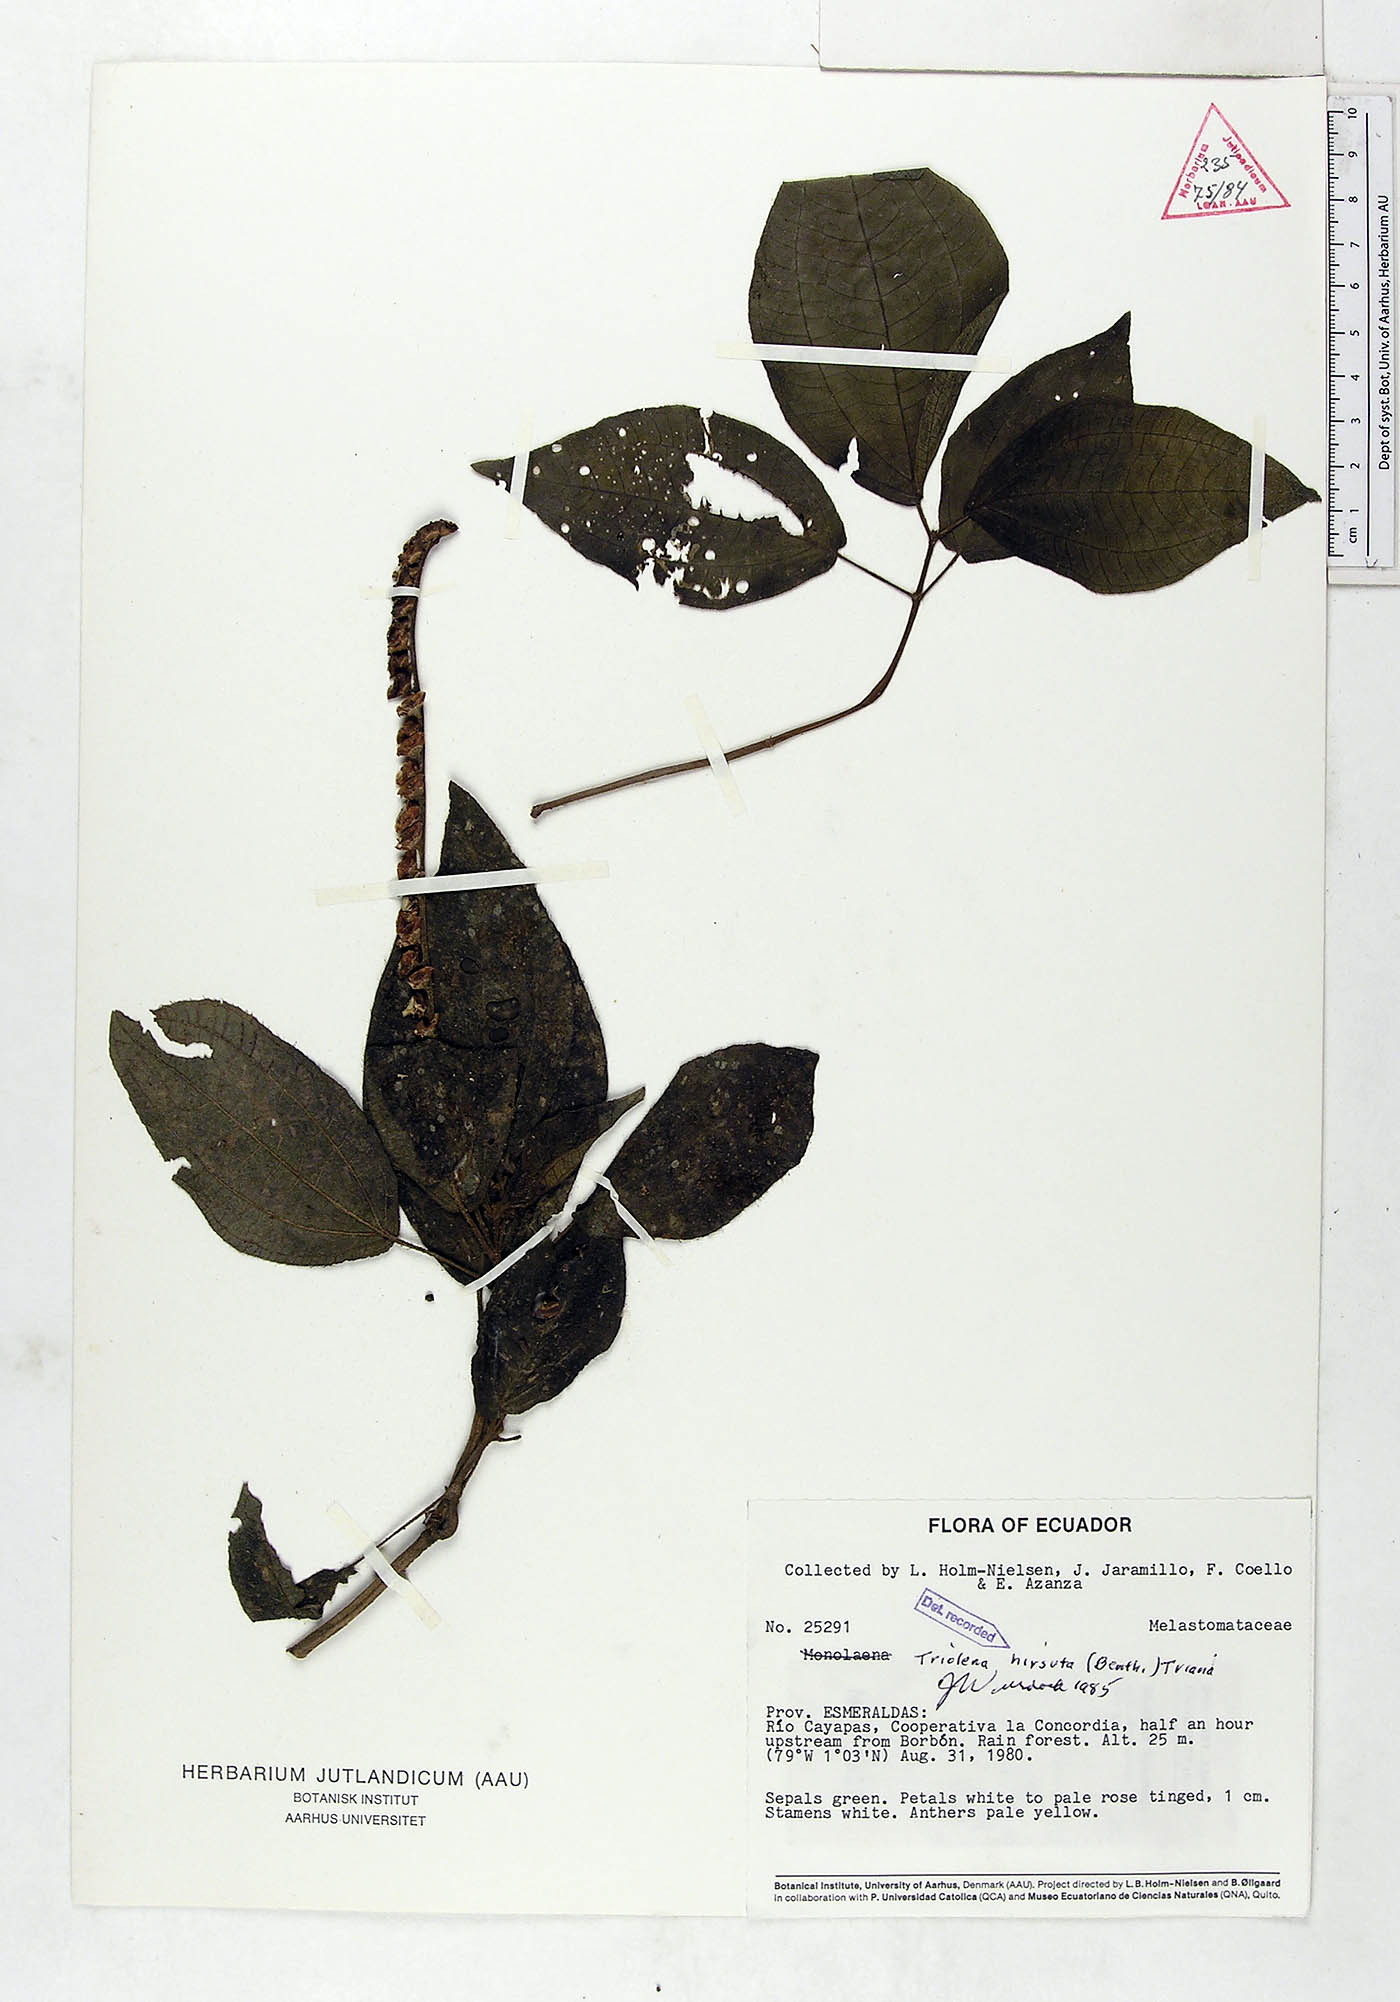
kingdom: Plantae
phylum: Tracheophyta
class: Magnoliopsida
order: Myrtales
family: Melastomataceae
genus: Triolena
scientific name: Triolena hirsuta
